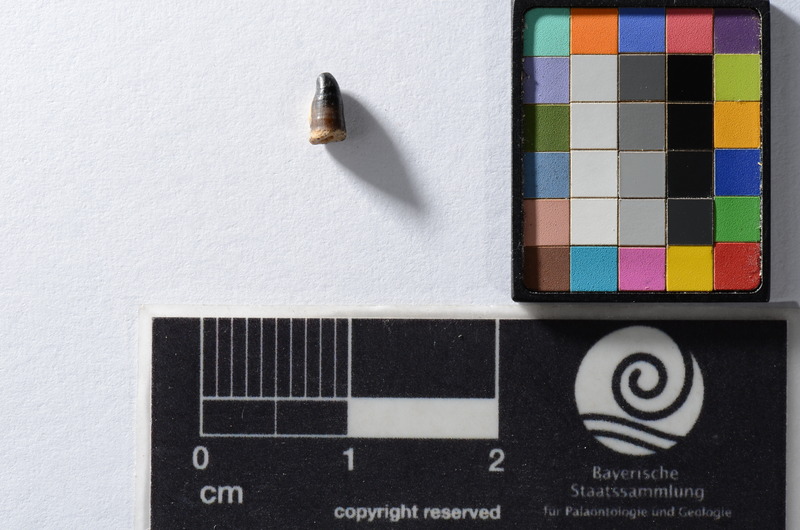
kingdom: Animalia
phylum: Chordata
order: Cypriniformes
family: Cyprinidae
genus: Capitodus
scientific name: Capitodus
